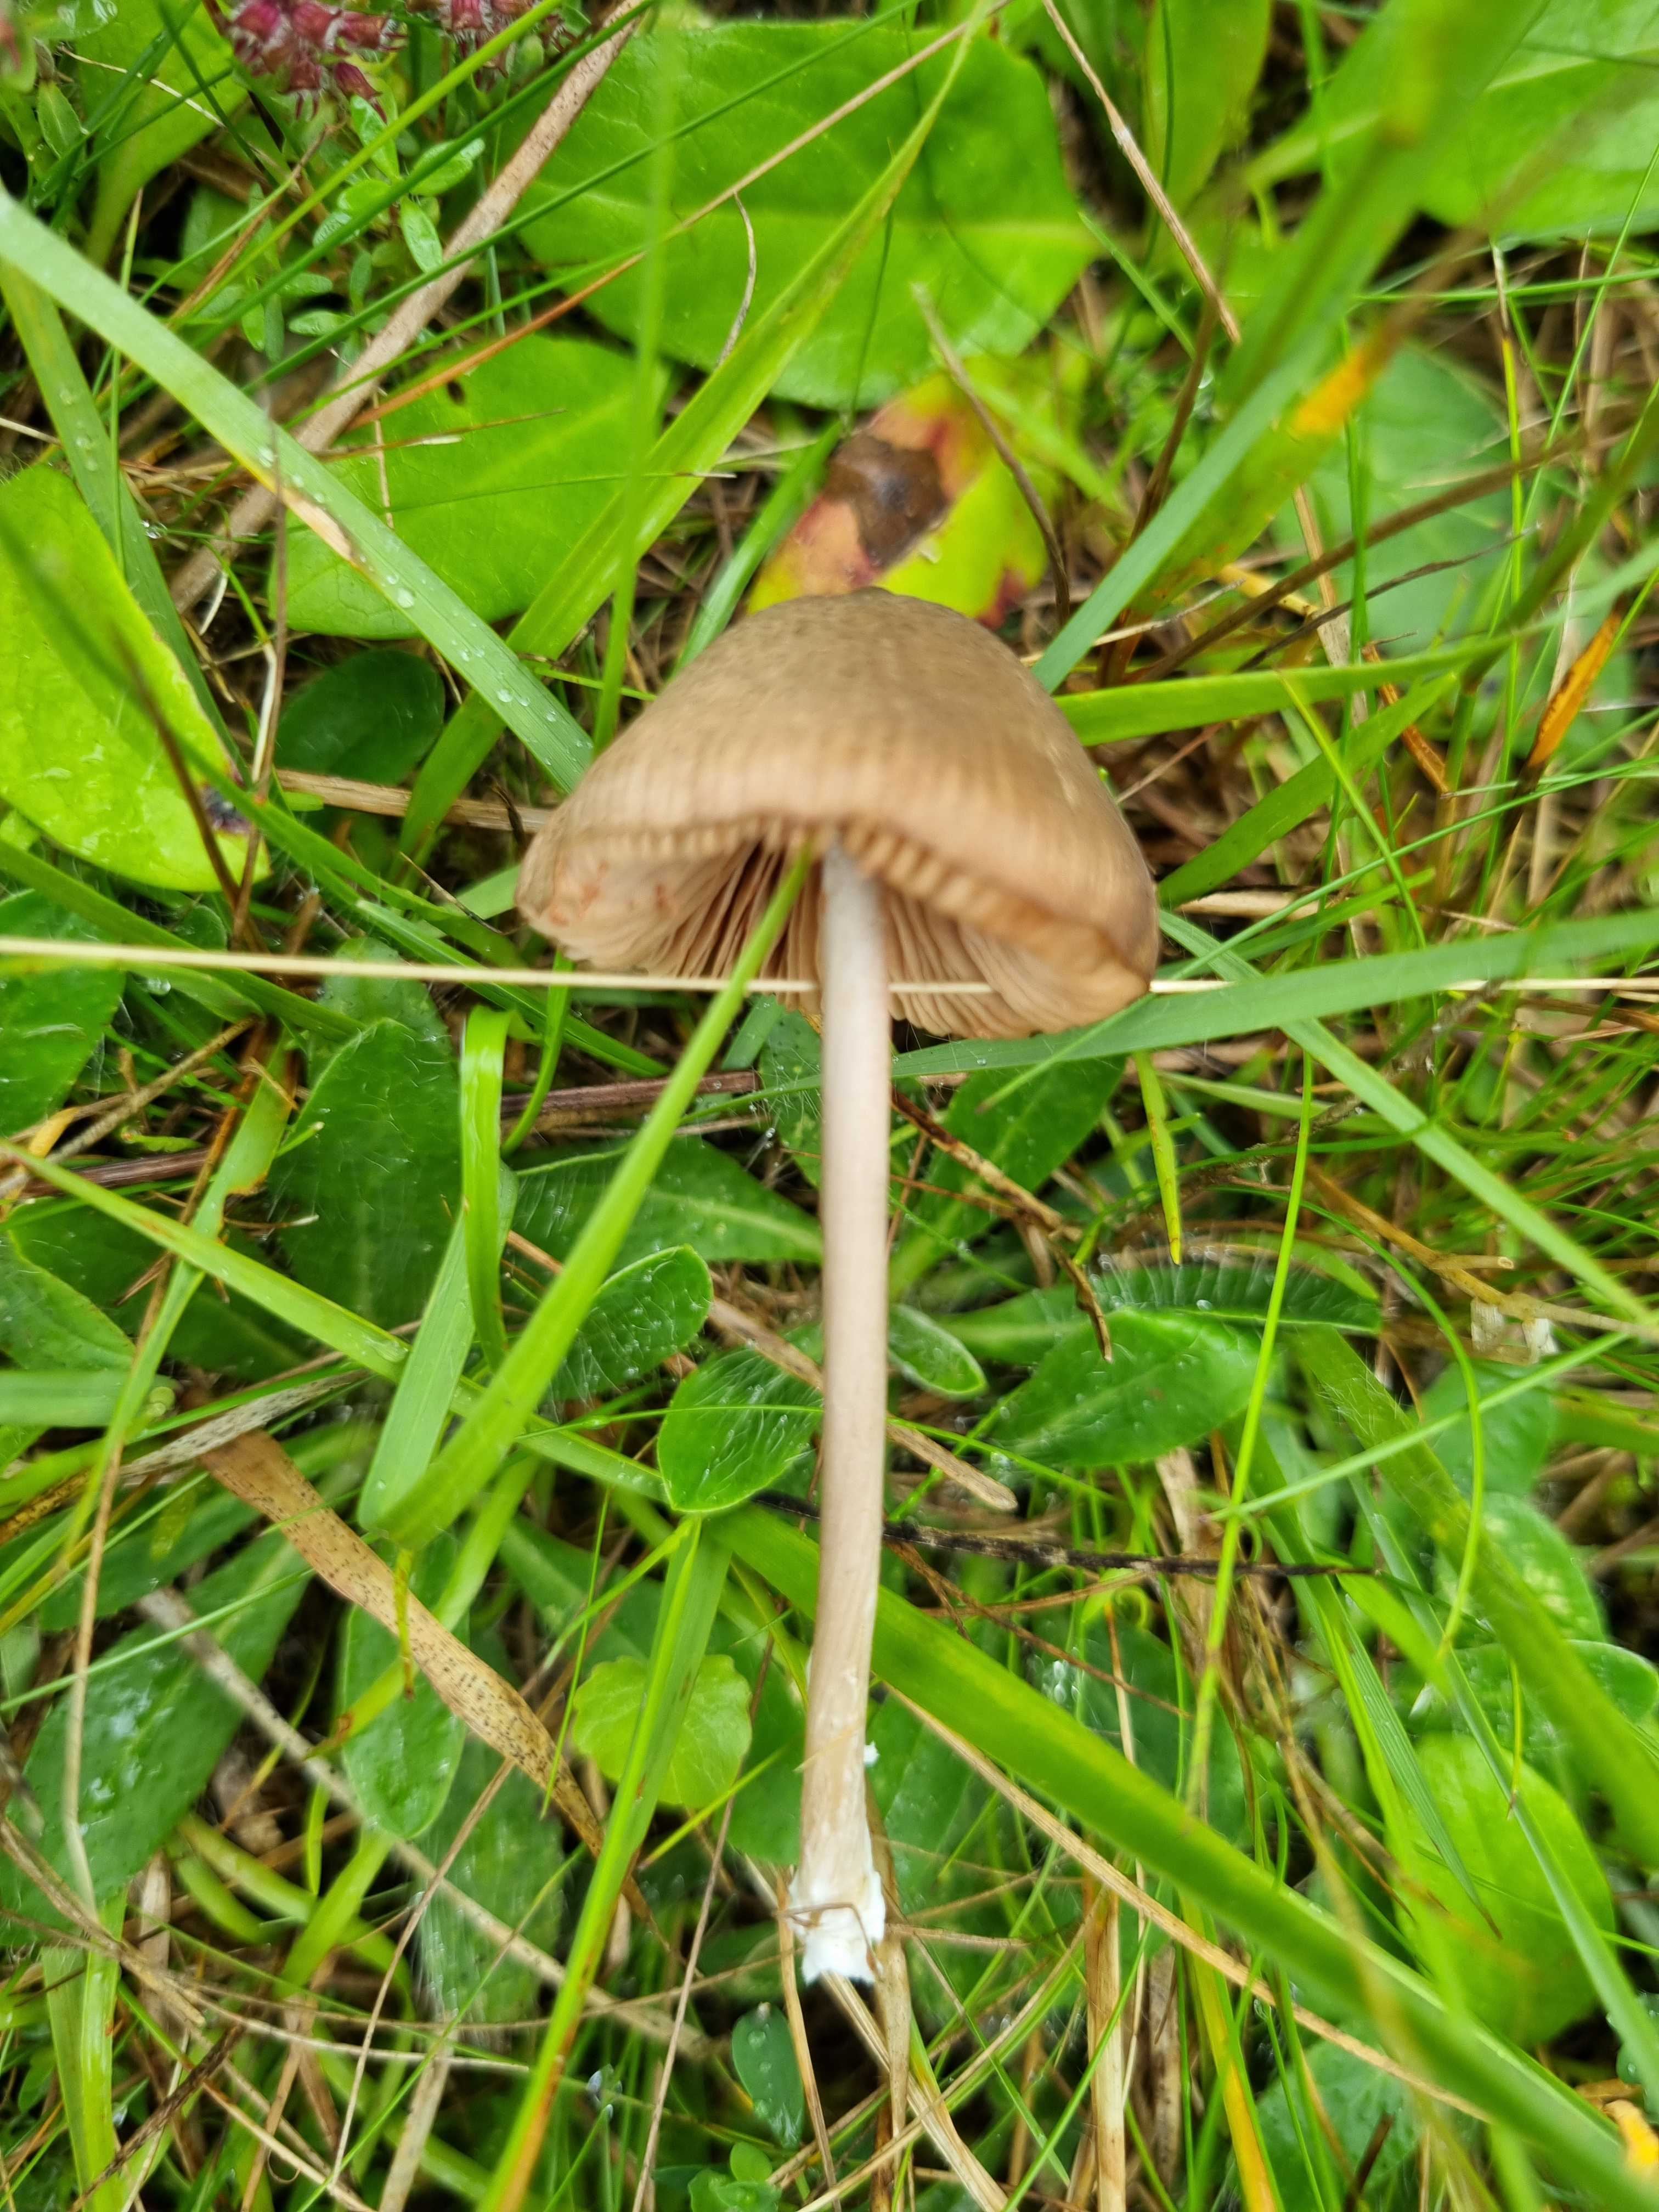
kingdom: Fungi
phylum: Basidiomycota
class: Agaricomycetes
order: Agaricales
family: Entolomataceae
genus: Entoloma
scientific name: Entoloma griseocyaneum
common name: gråblå rødblad
